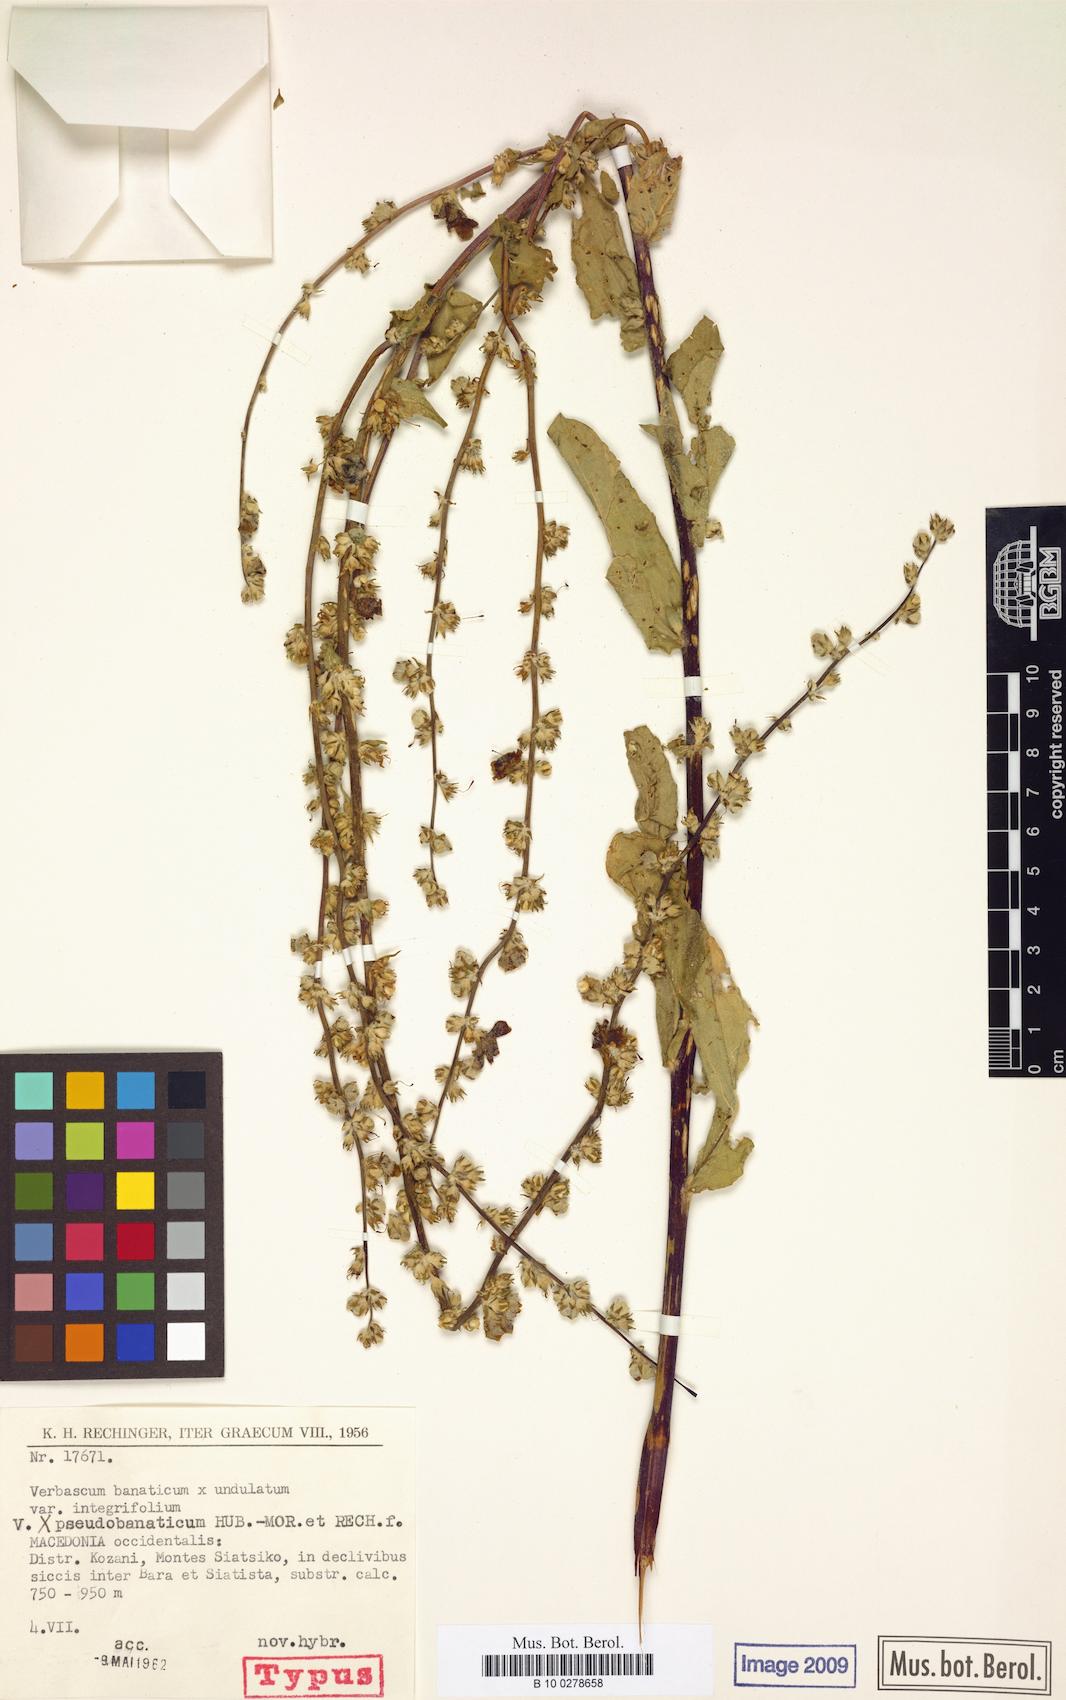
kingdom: Plantae
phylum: Tracheophyta
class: Magnoliopsida
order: Lamiales
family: Scrophulariaceae
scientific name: Scrophulariaceae
